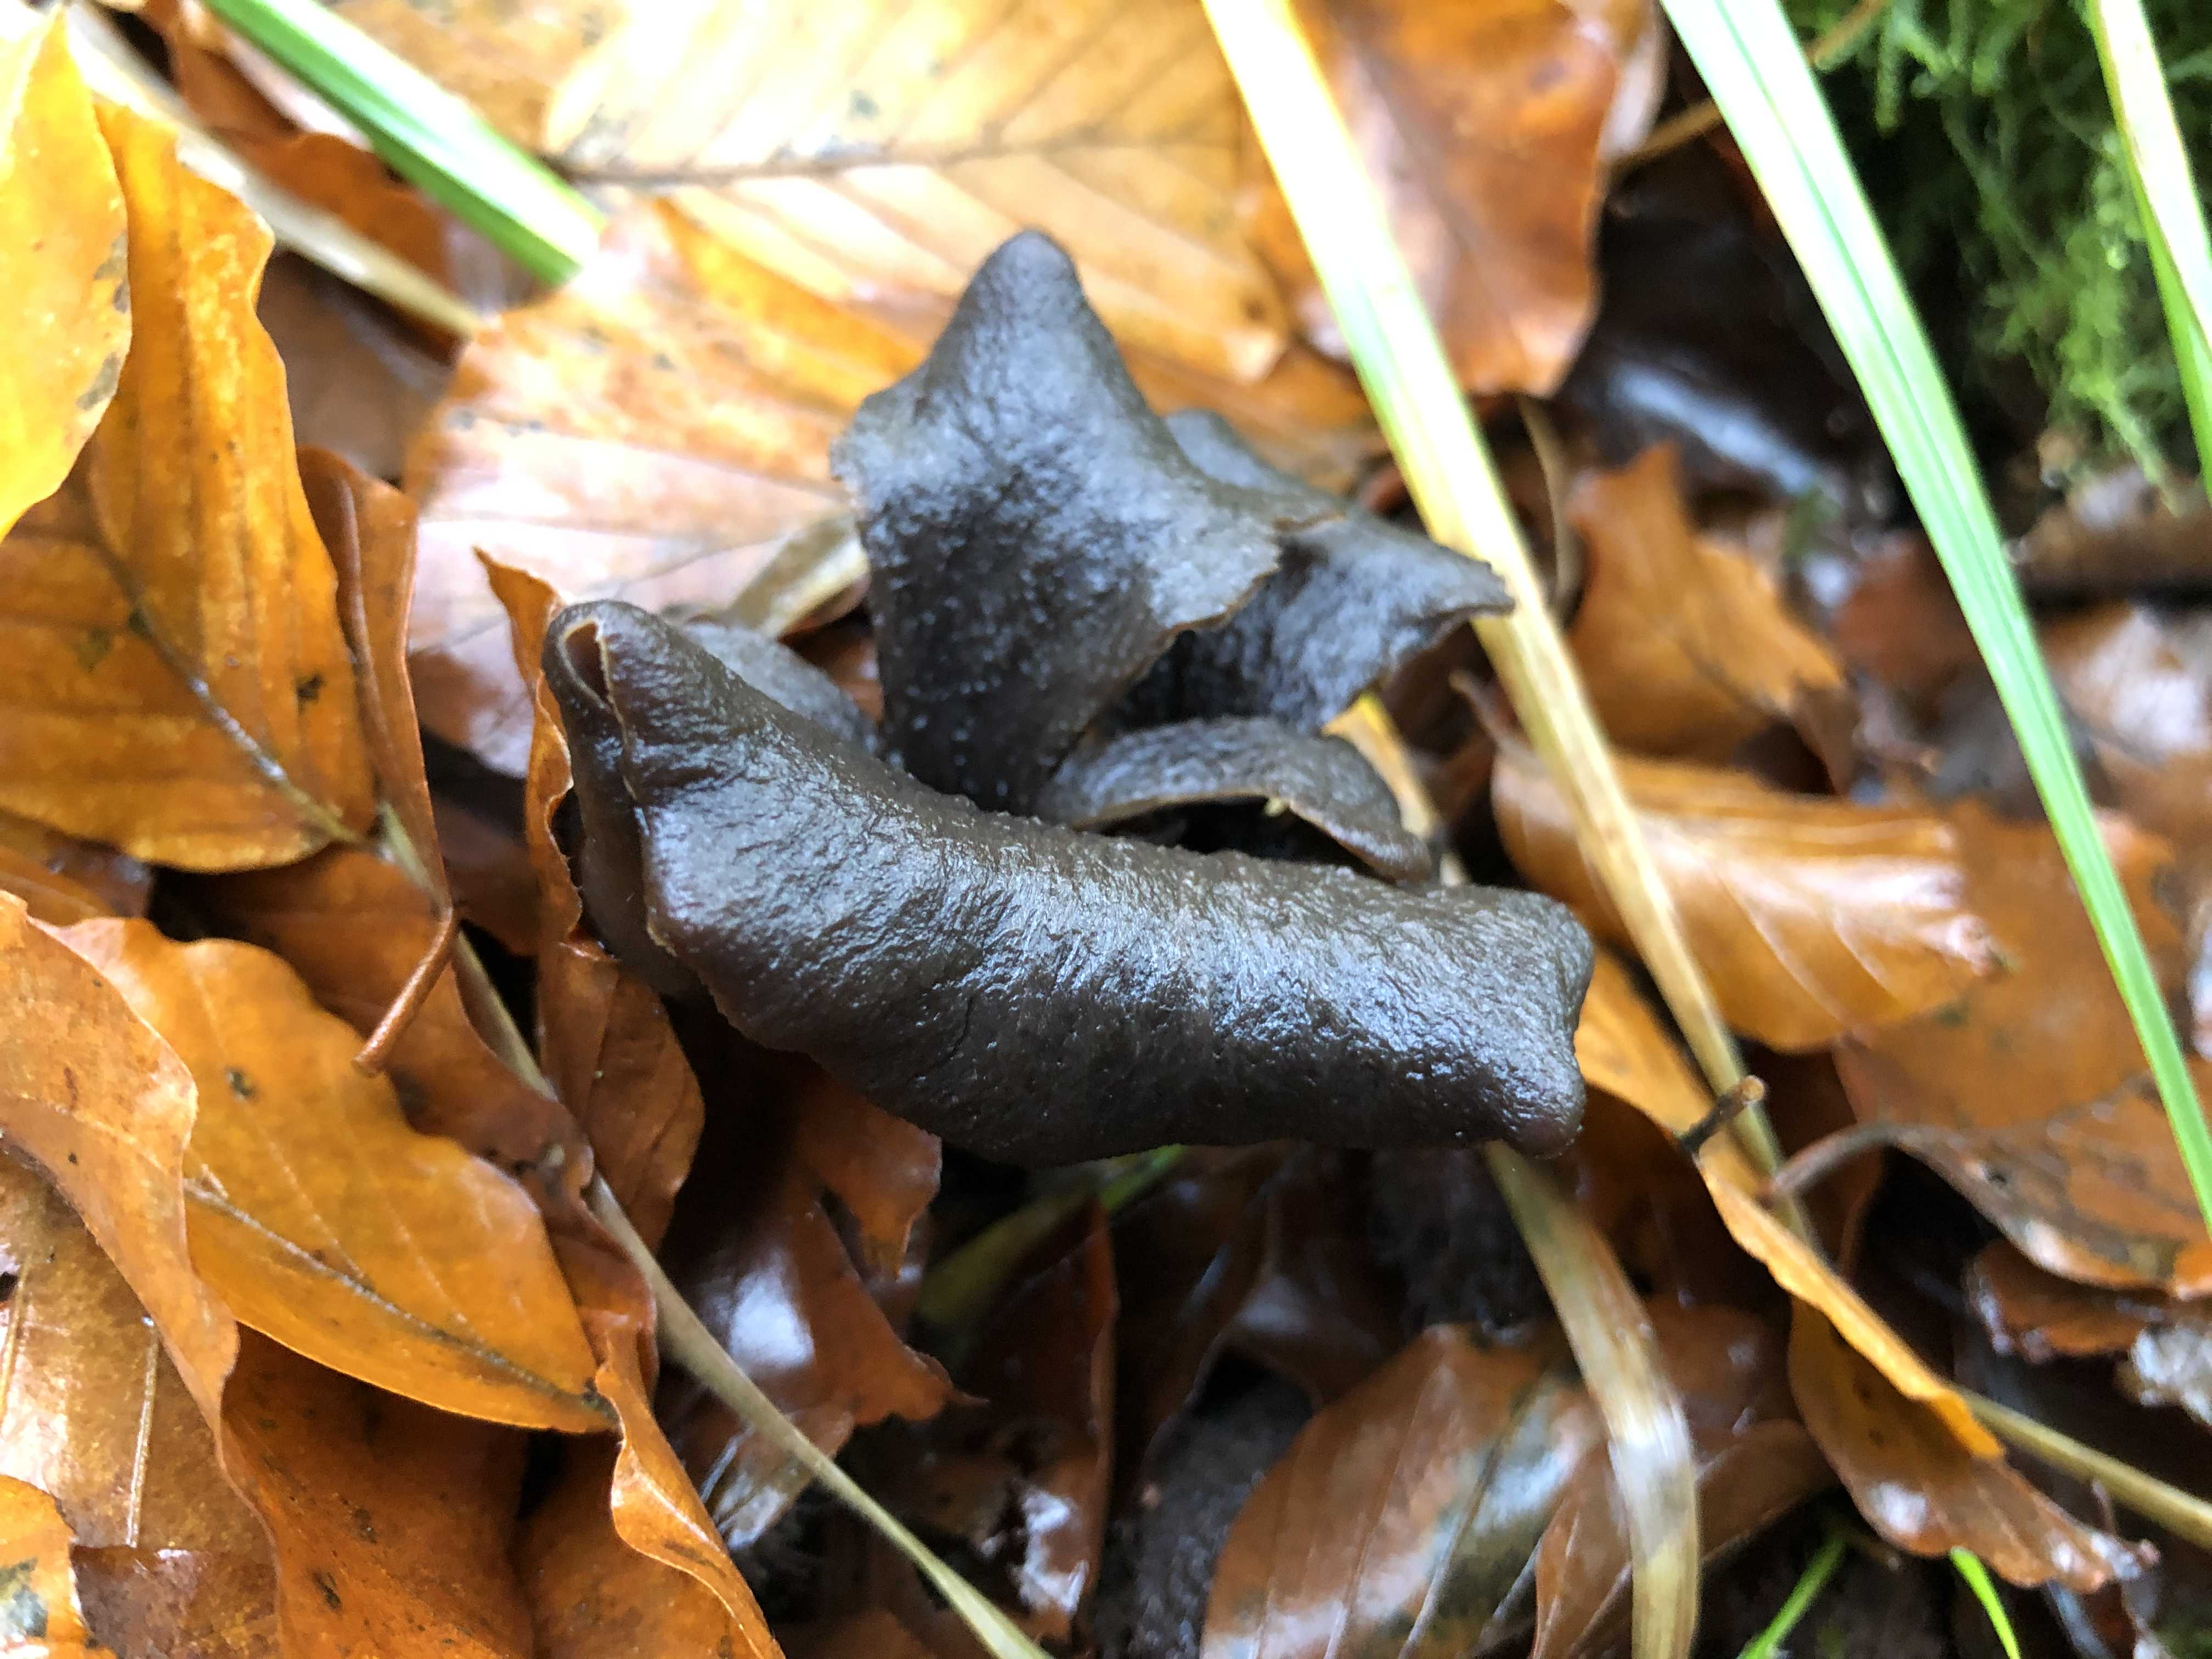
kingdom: Fungi
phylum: Basidiomycota
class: Agaricomycetes
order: Cantharellales
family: Hydnaceae
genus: Craterellus
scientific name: Craterellus cornucopioides
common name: trompetsvamp
